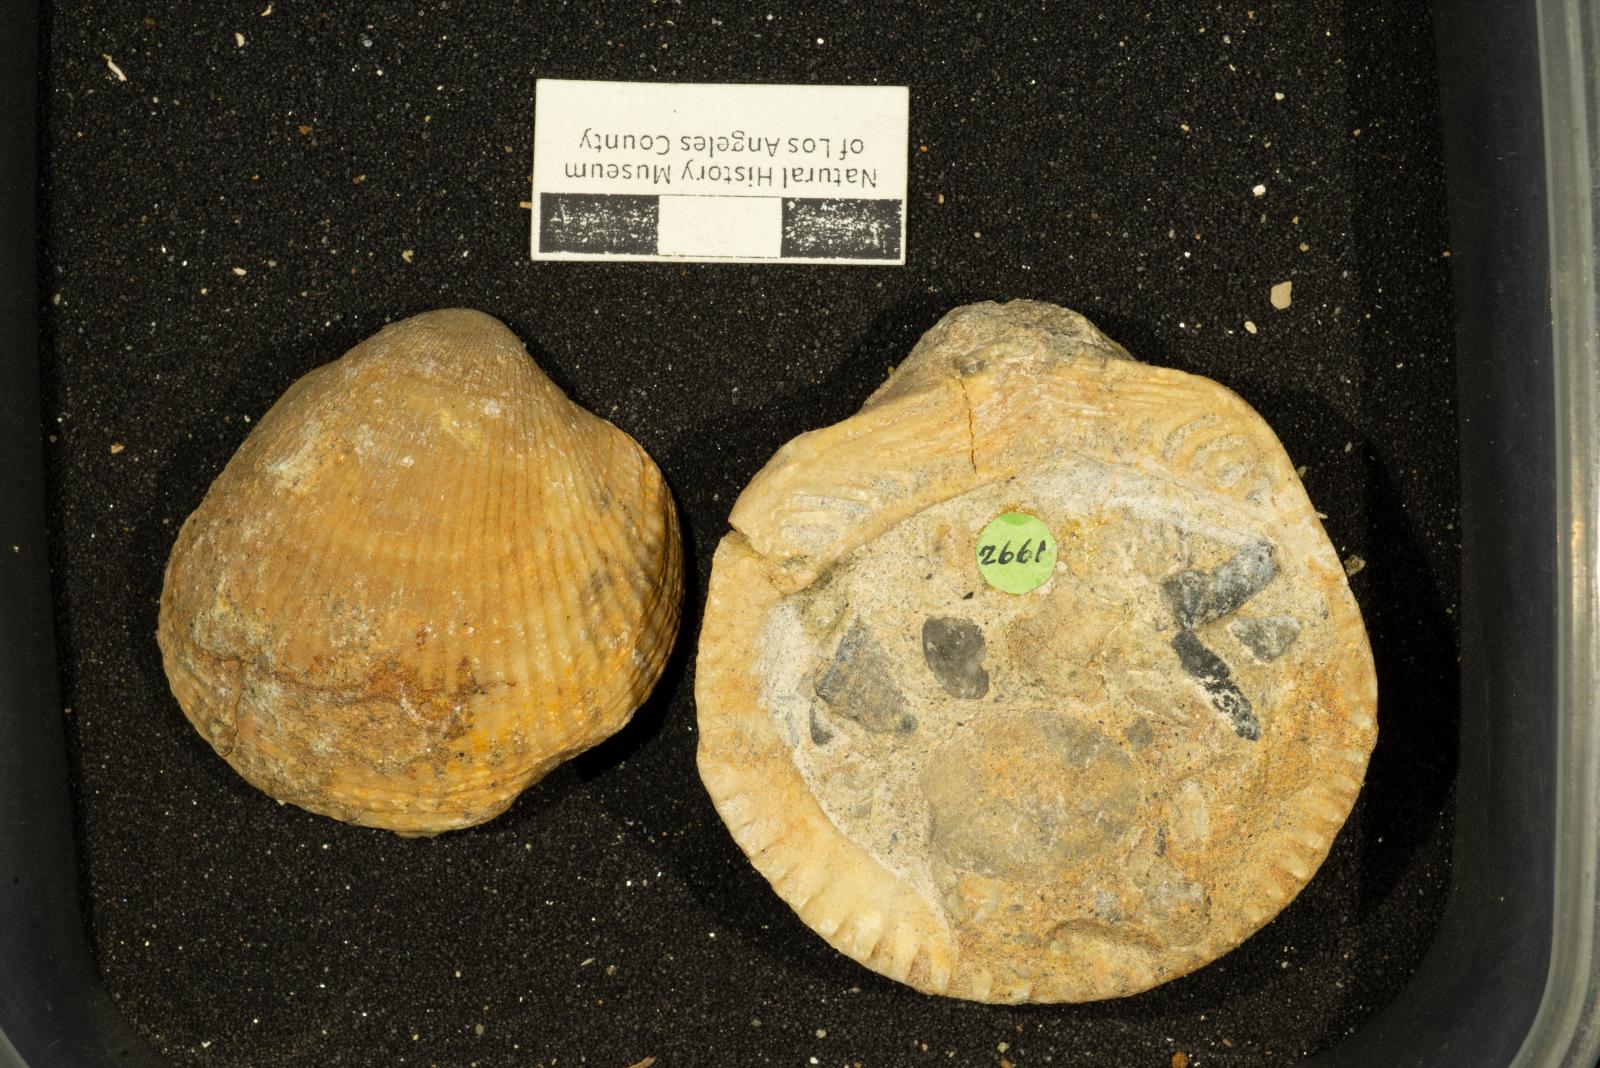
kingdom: Animalia
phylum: Mollusca
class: Bivalvia
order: Arcida
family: Glycymerididae
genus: Glycymerita
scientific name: Glycymerita Glycymeris banosensis
